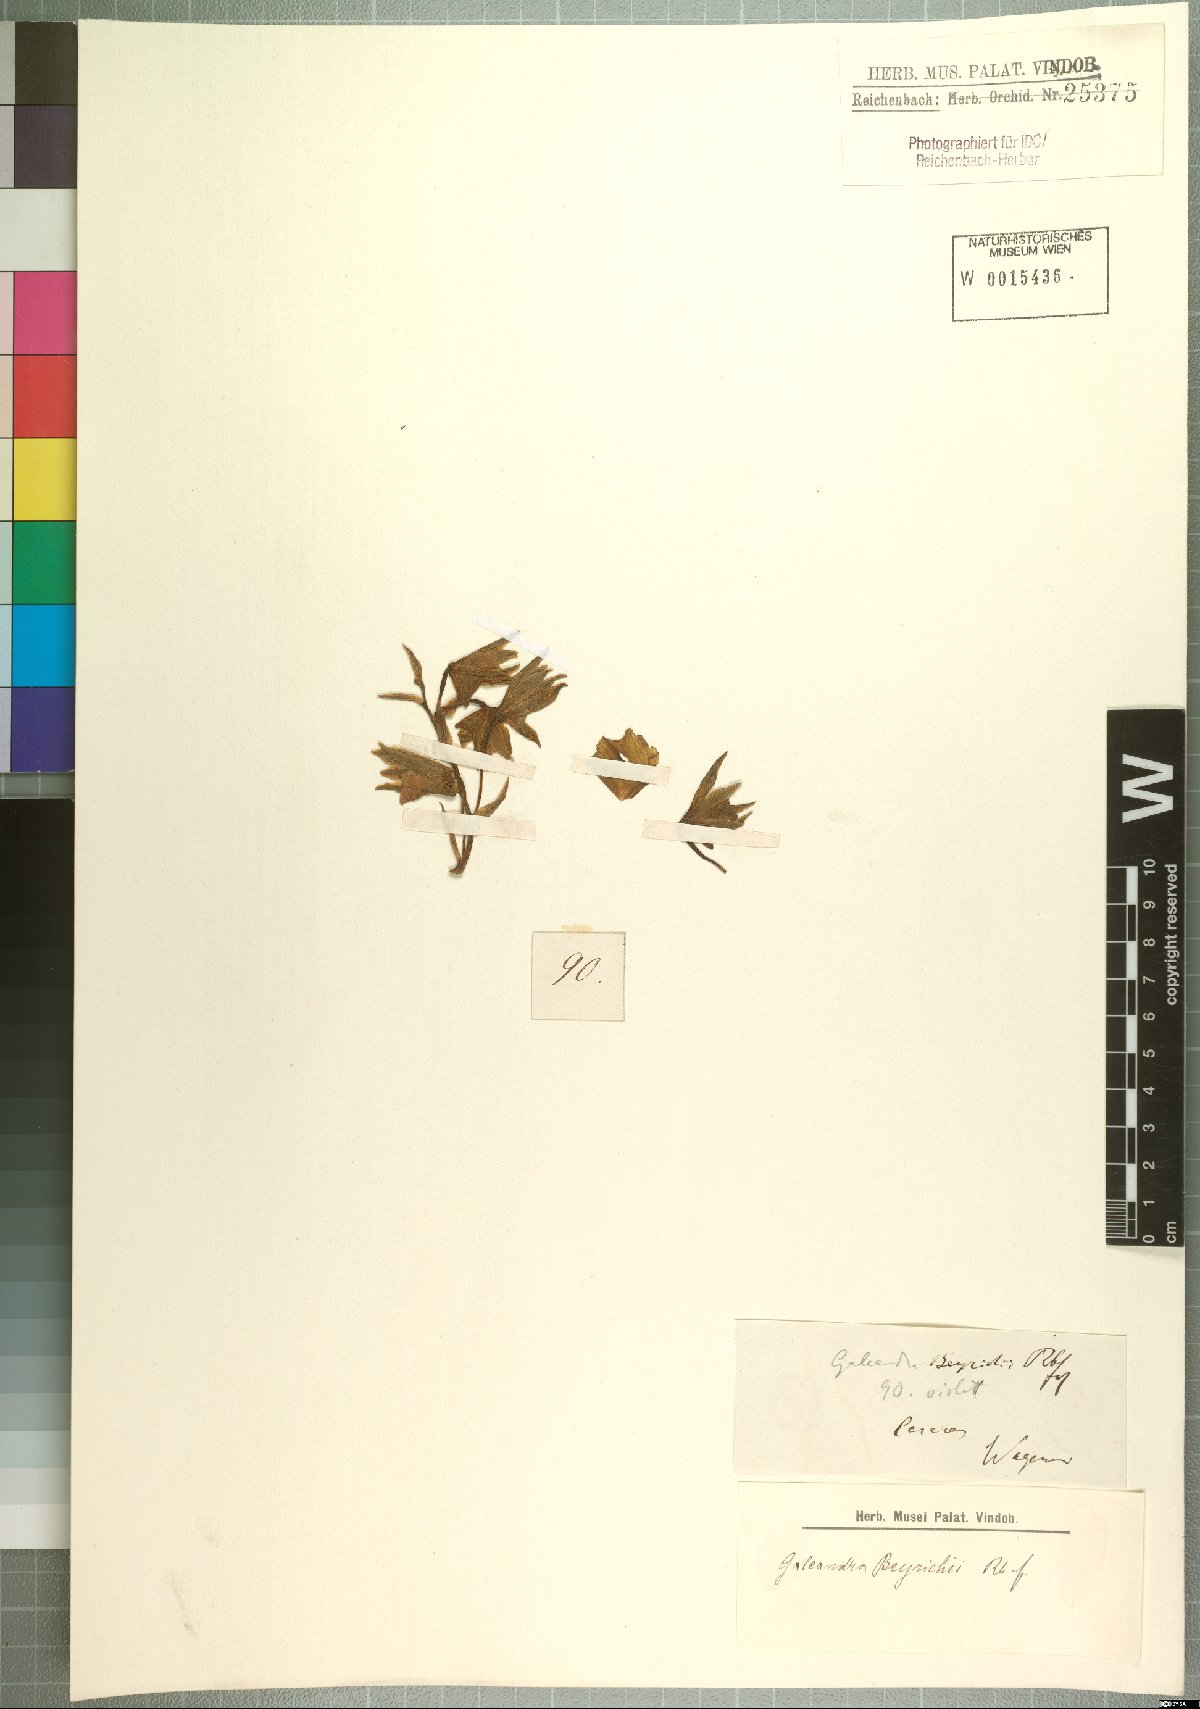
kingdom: Plantae
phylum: Tracheophyta
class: Liliopsida
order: Asparagales
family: Orchidaceae
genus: Galeandra
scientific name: Galeandra beyrichii
